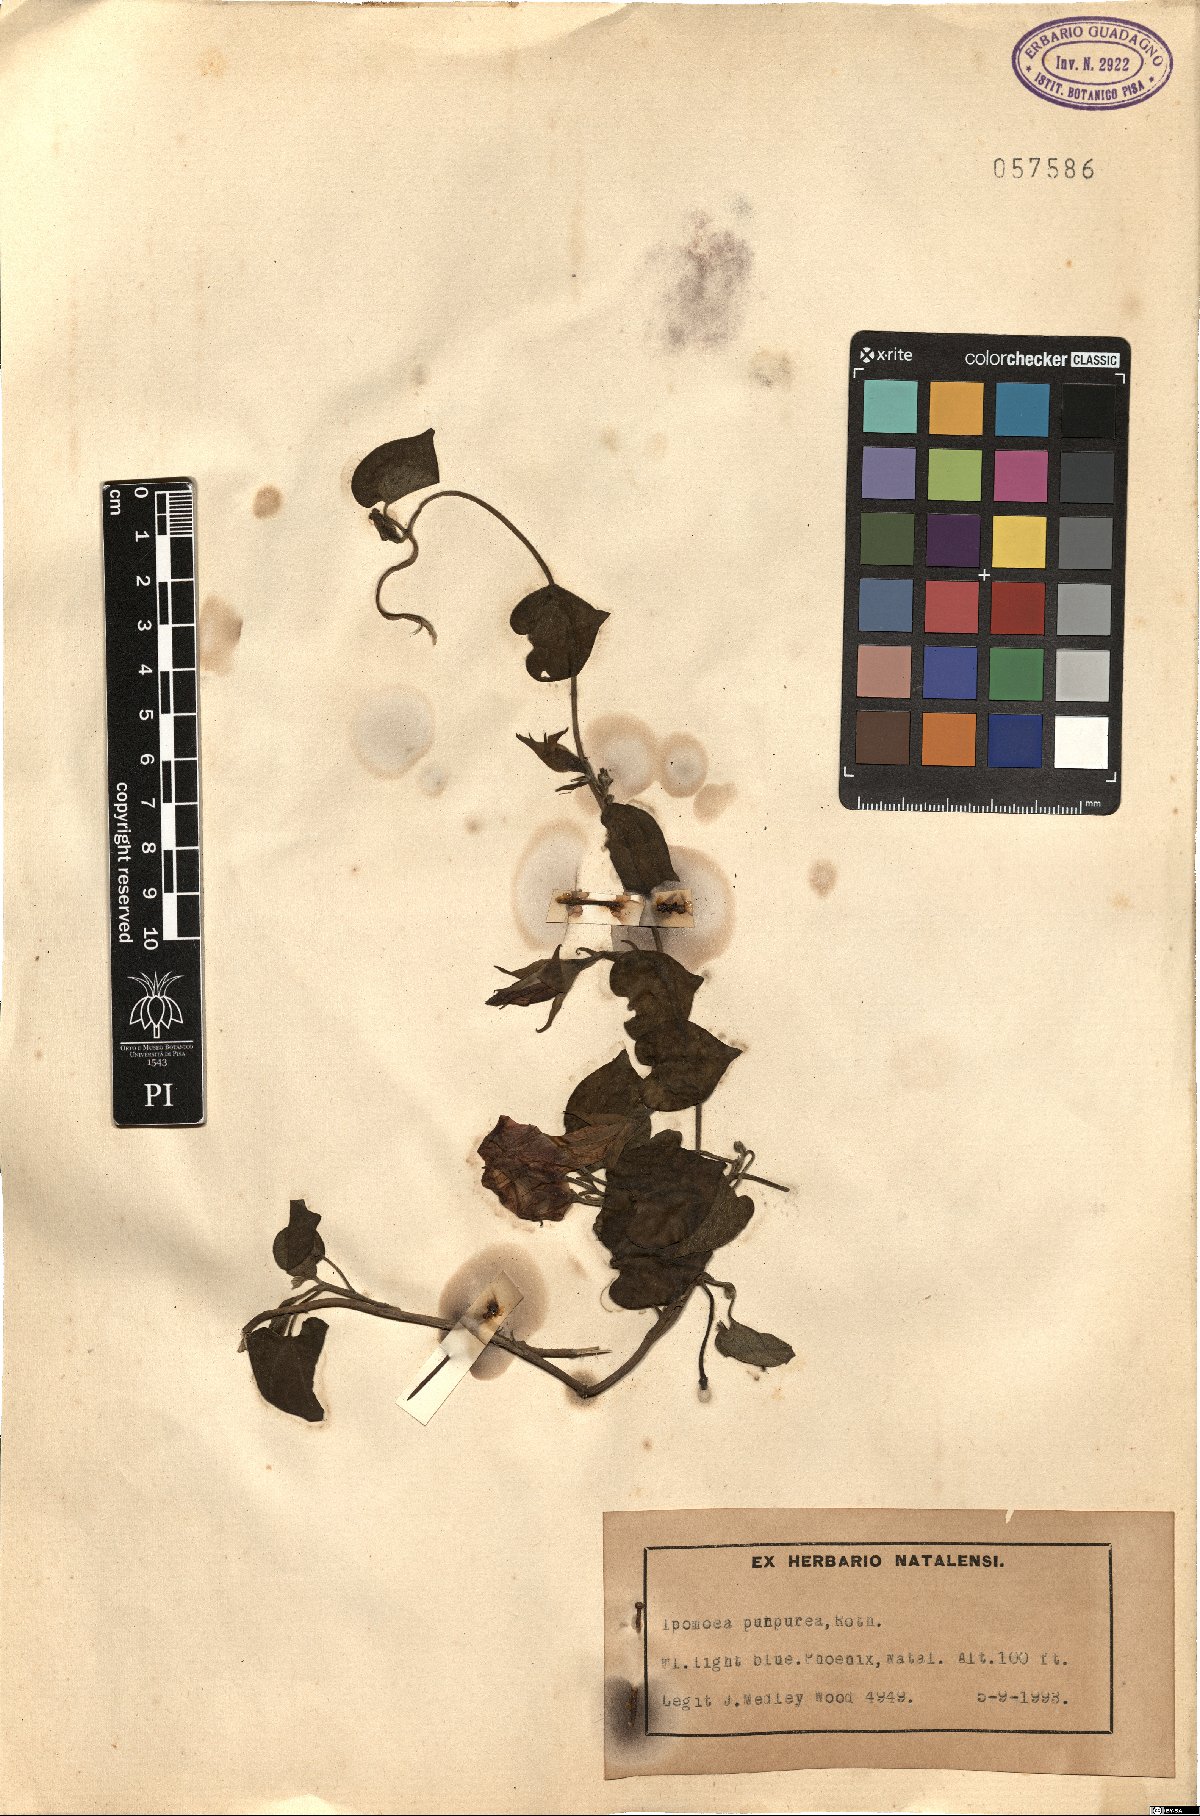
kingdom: Plantae
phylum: Tracheophyta
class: Magnoliopsida
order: Solanales
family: Convolvulaceae
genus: Ipomoea
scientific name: Ipomoea purpurea
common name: Common morning-glory
